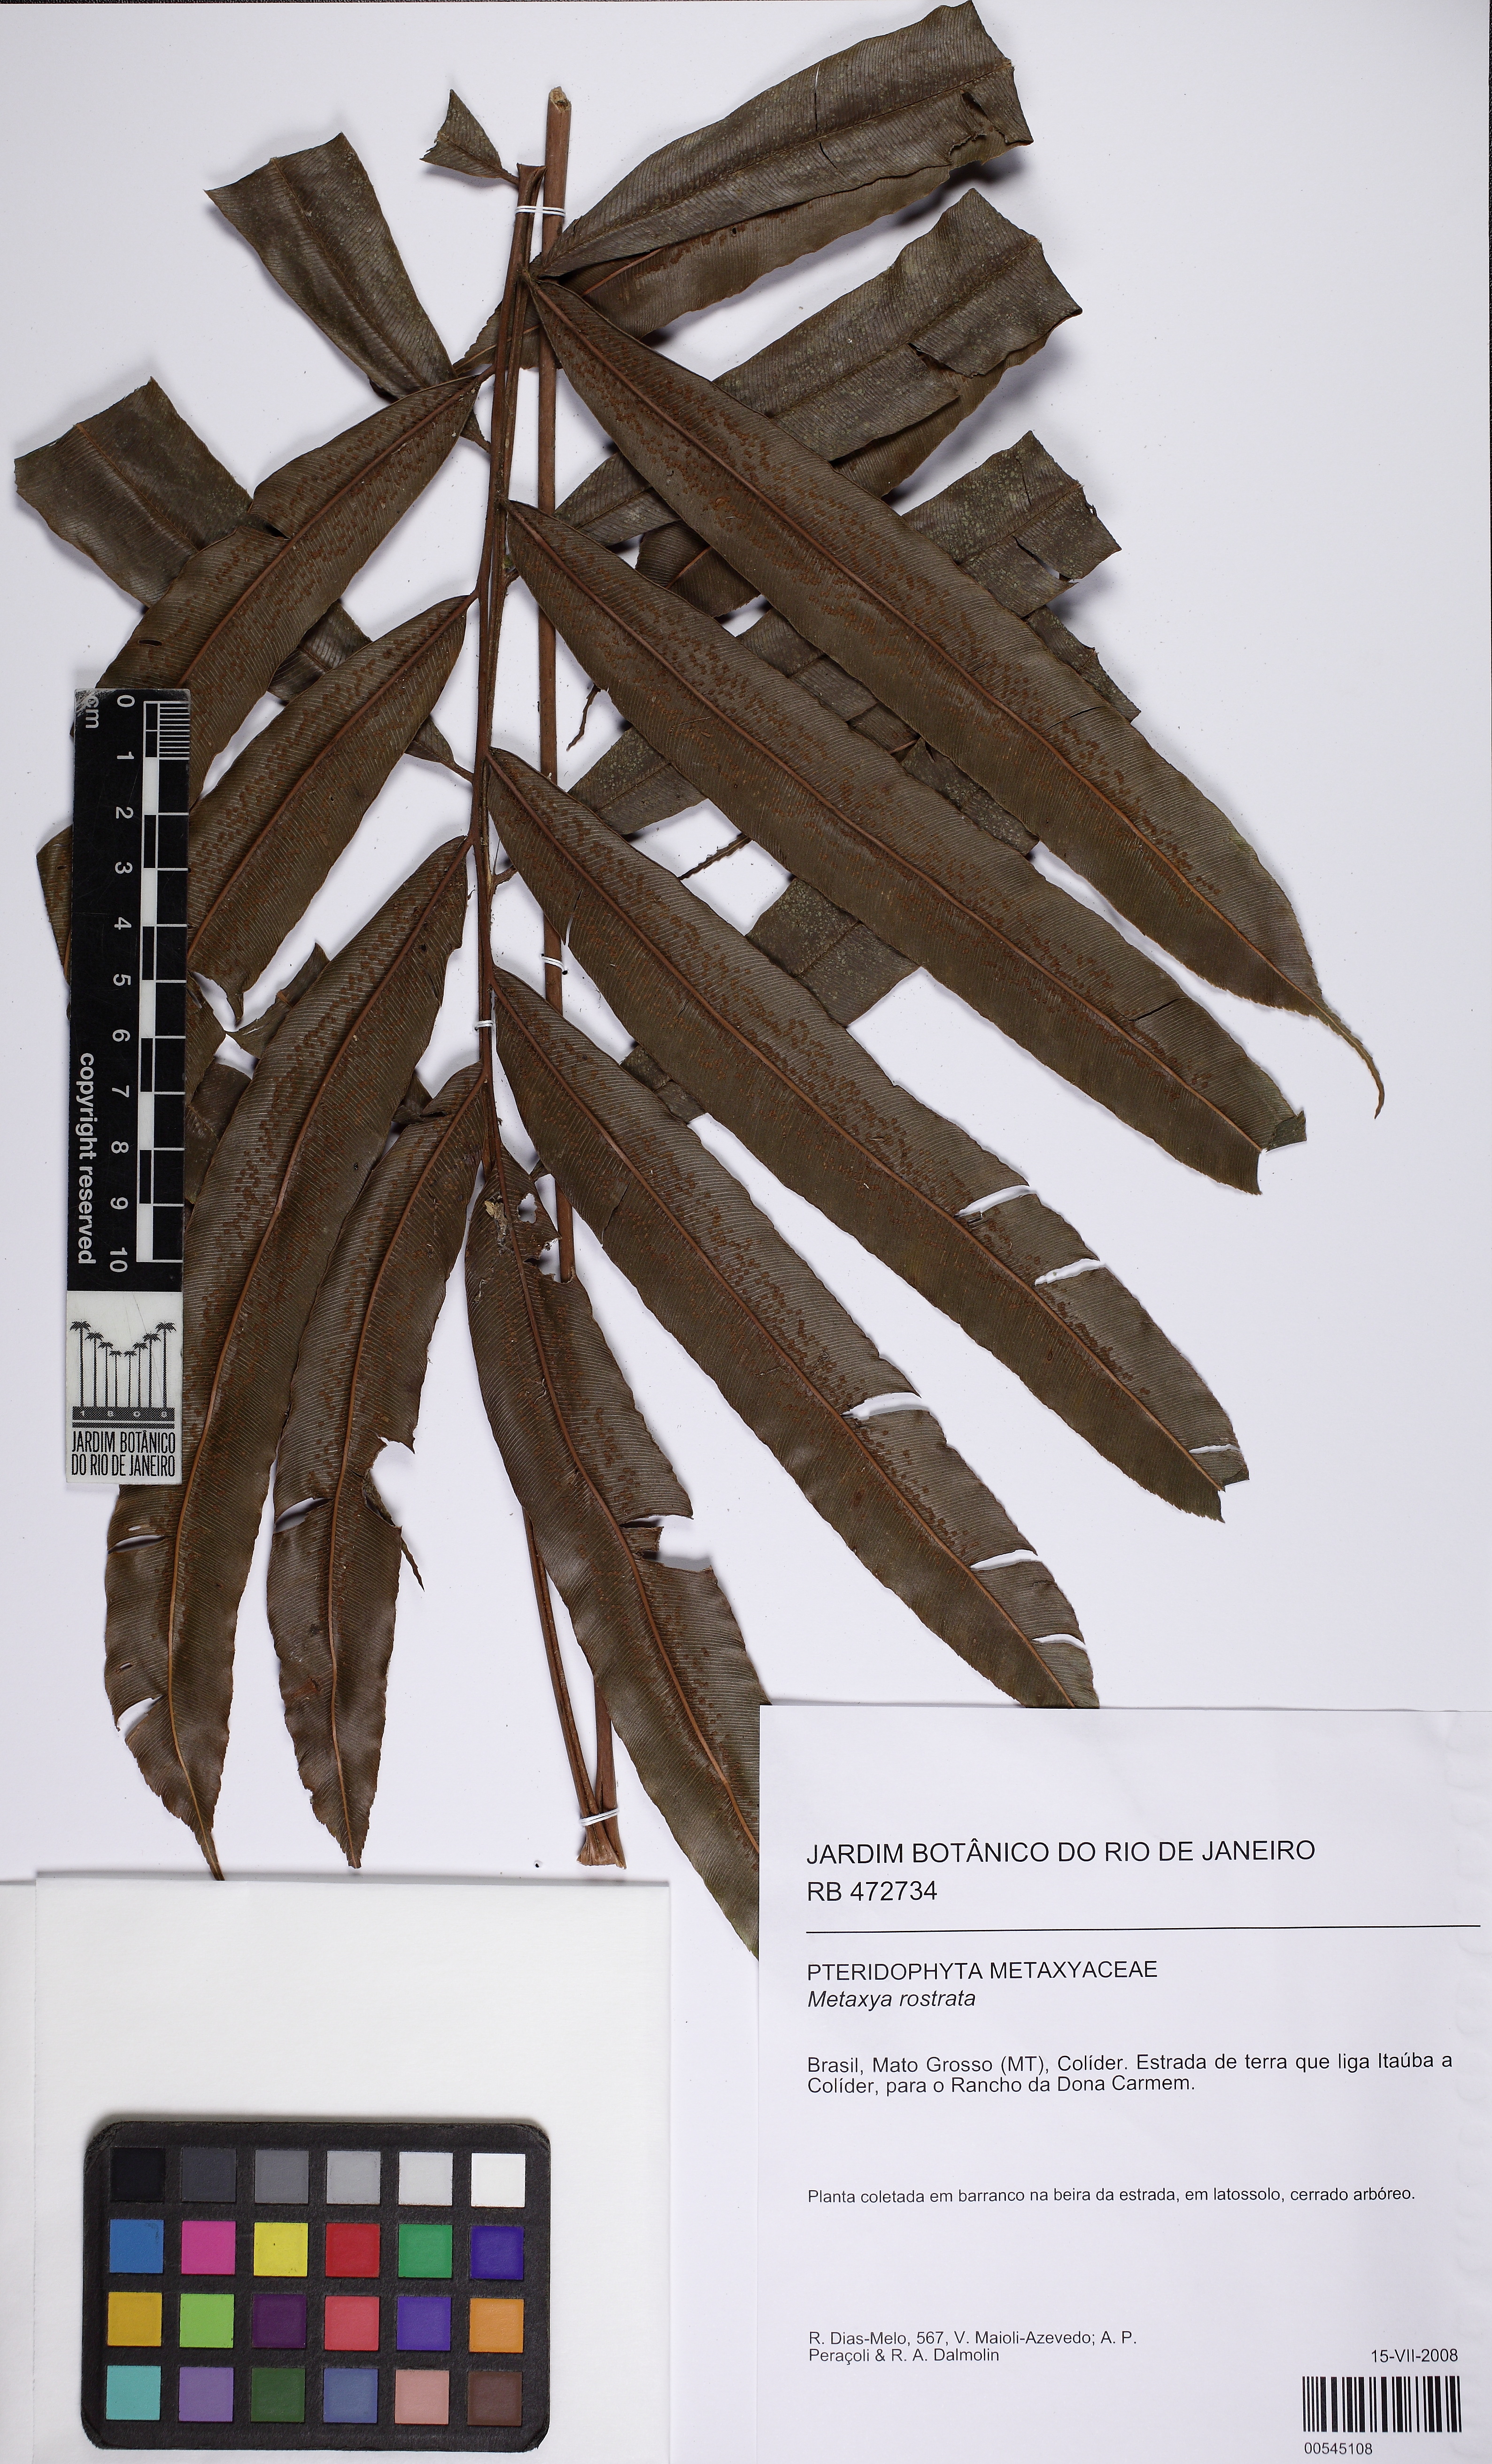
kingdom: Plantae
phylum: Tracheophyta
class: Polypodiopsida
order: Cyatheales
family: Metaxyaceae
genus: Metaxya
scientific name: Metaxya rostrata
